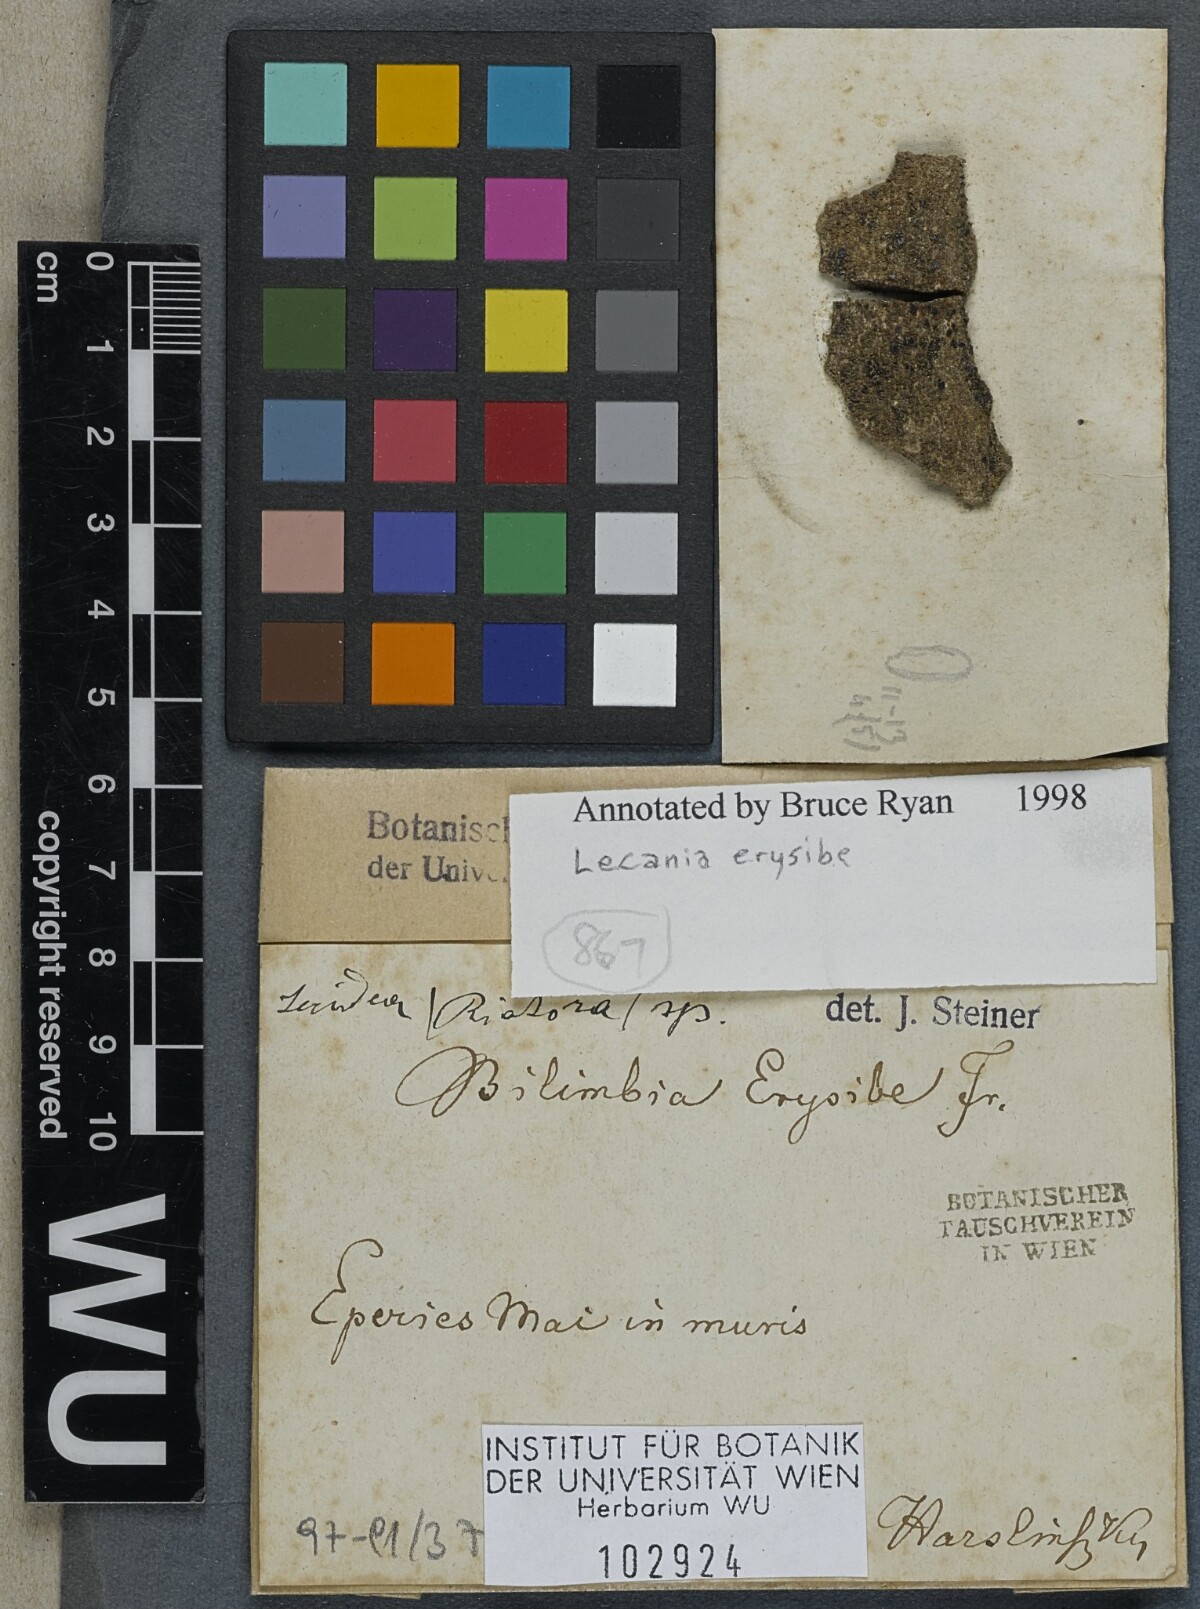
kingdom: Fungi
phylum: Ascomycota
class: Lecanoromycetes
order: Lecanorales
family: Ramalinaceae
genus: Lecania
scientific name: Lecania erysibe
